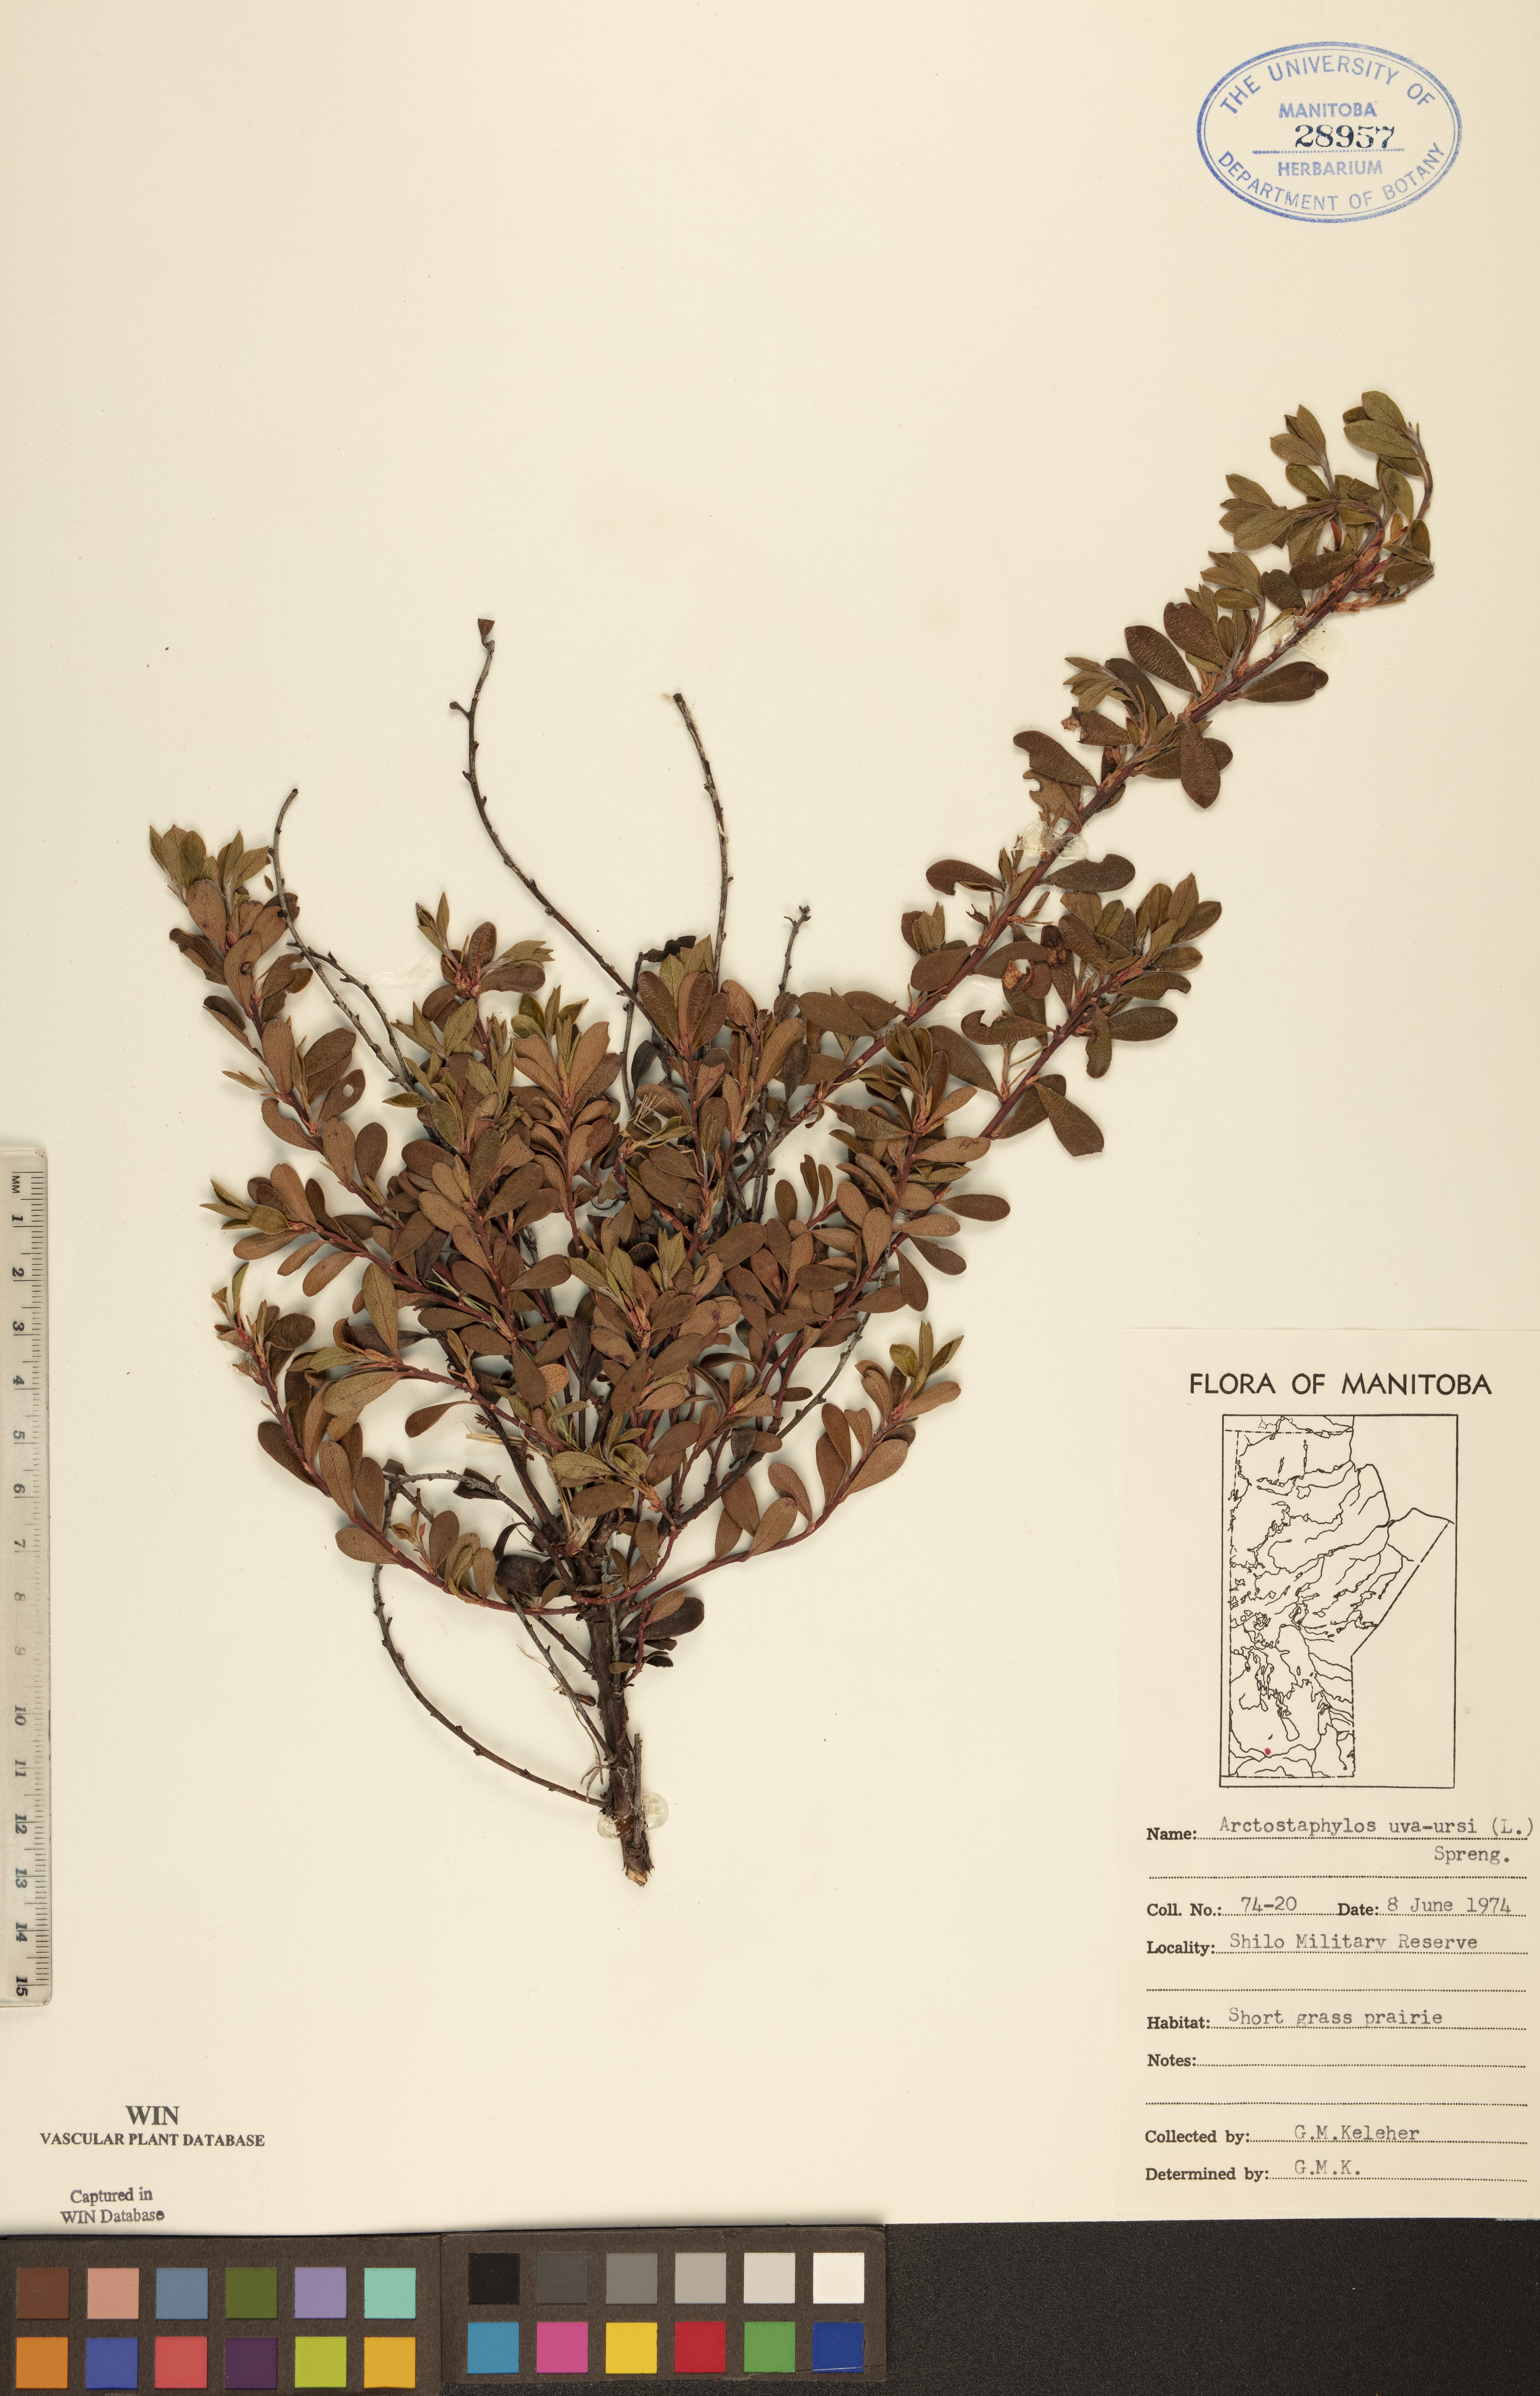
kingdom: Plantae
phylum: Tracheophyta
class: Magnoliopsida
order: Ericales
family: Ericaceae
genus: Arctostaphylos
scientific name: Arctostaphylos uva-ursi
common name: Bearberry
